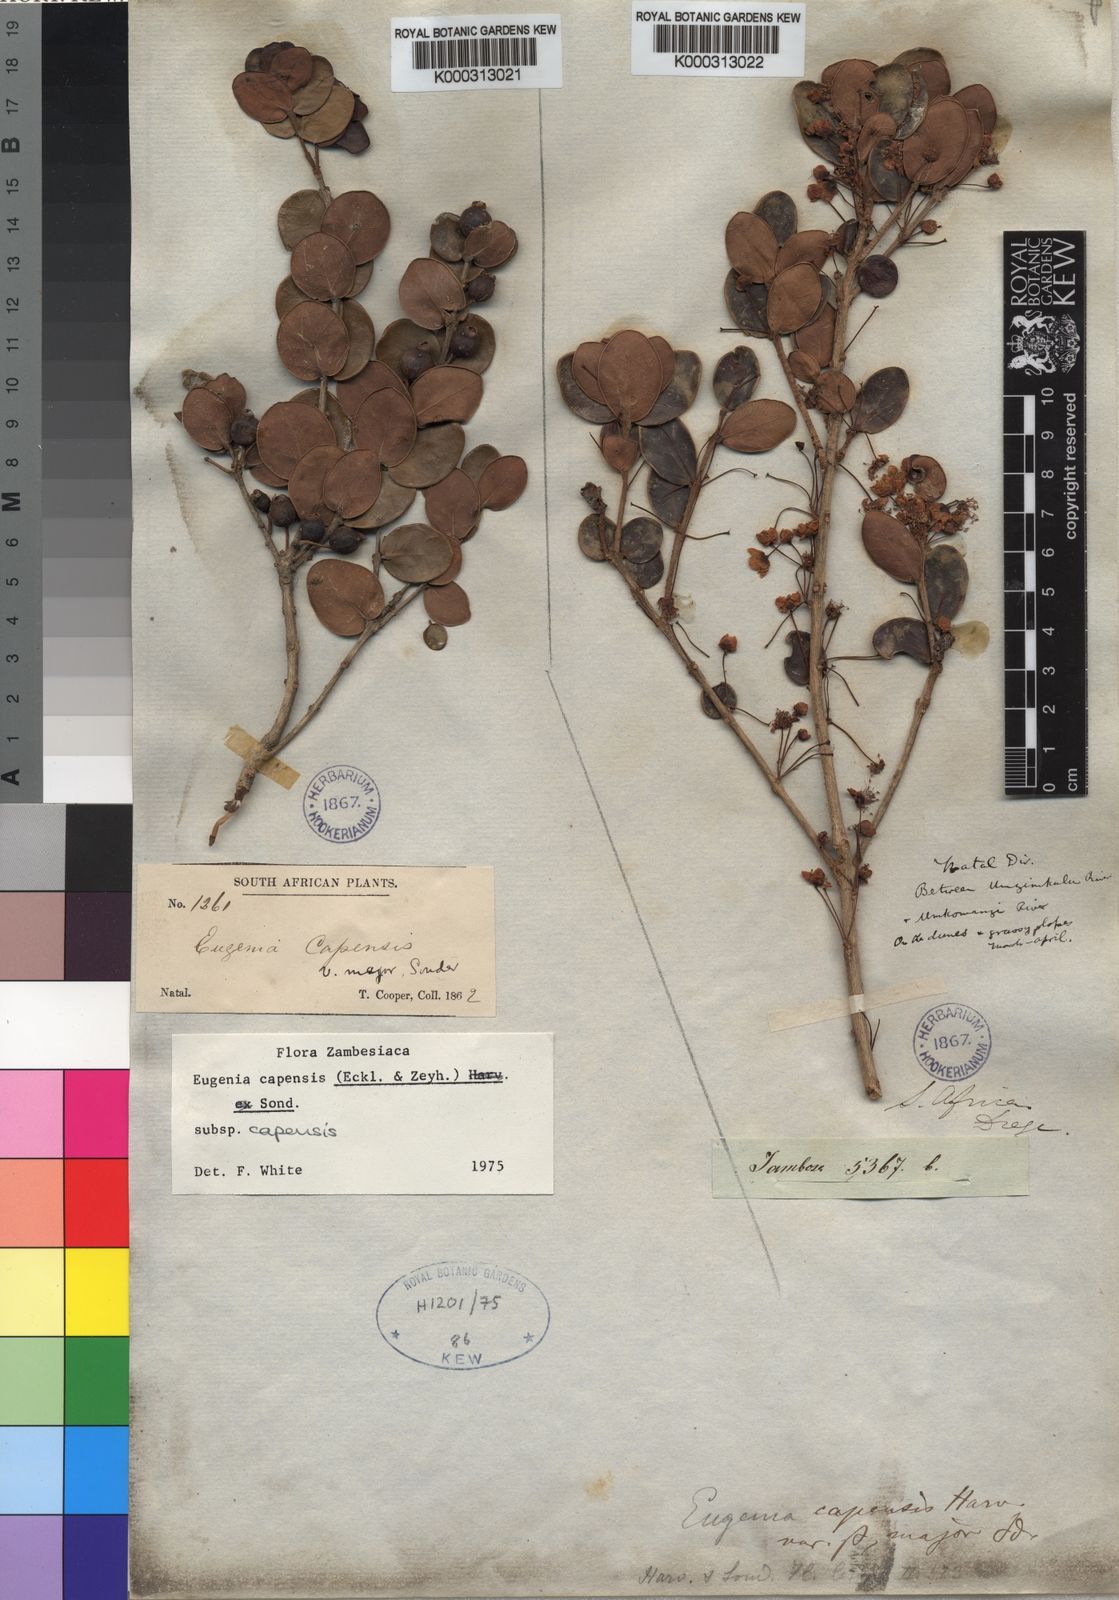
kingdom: Plantae
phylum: Tracheophyta
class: Magnoliopsida
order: Myrtales
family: Myrtaceae
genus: Eugenia
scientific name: Eugenia capensis
